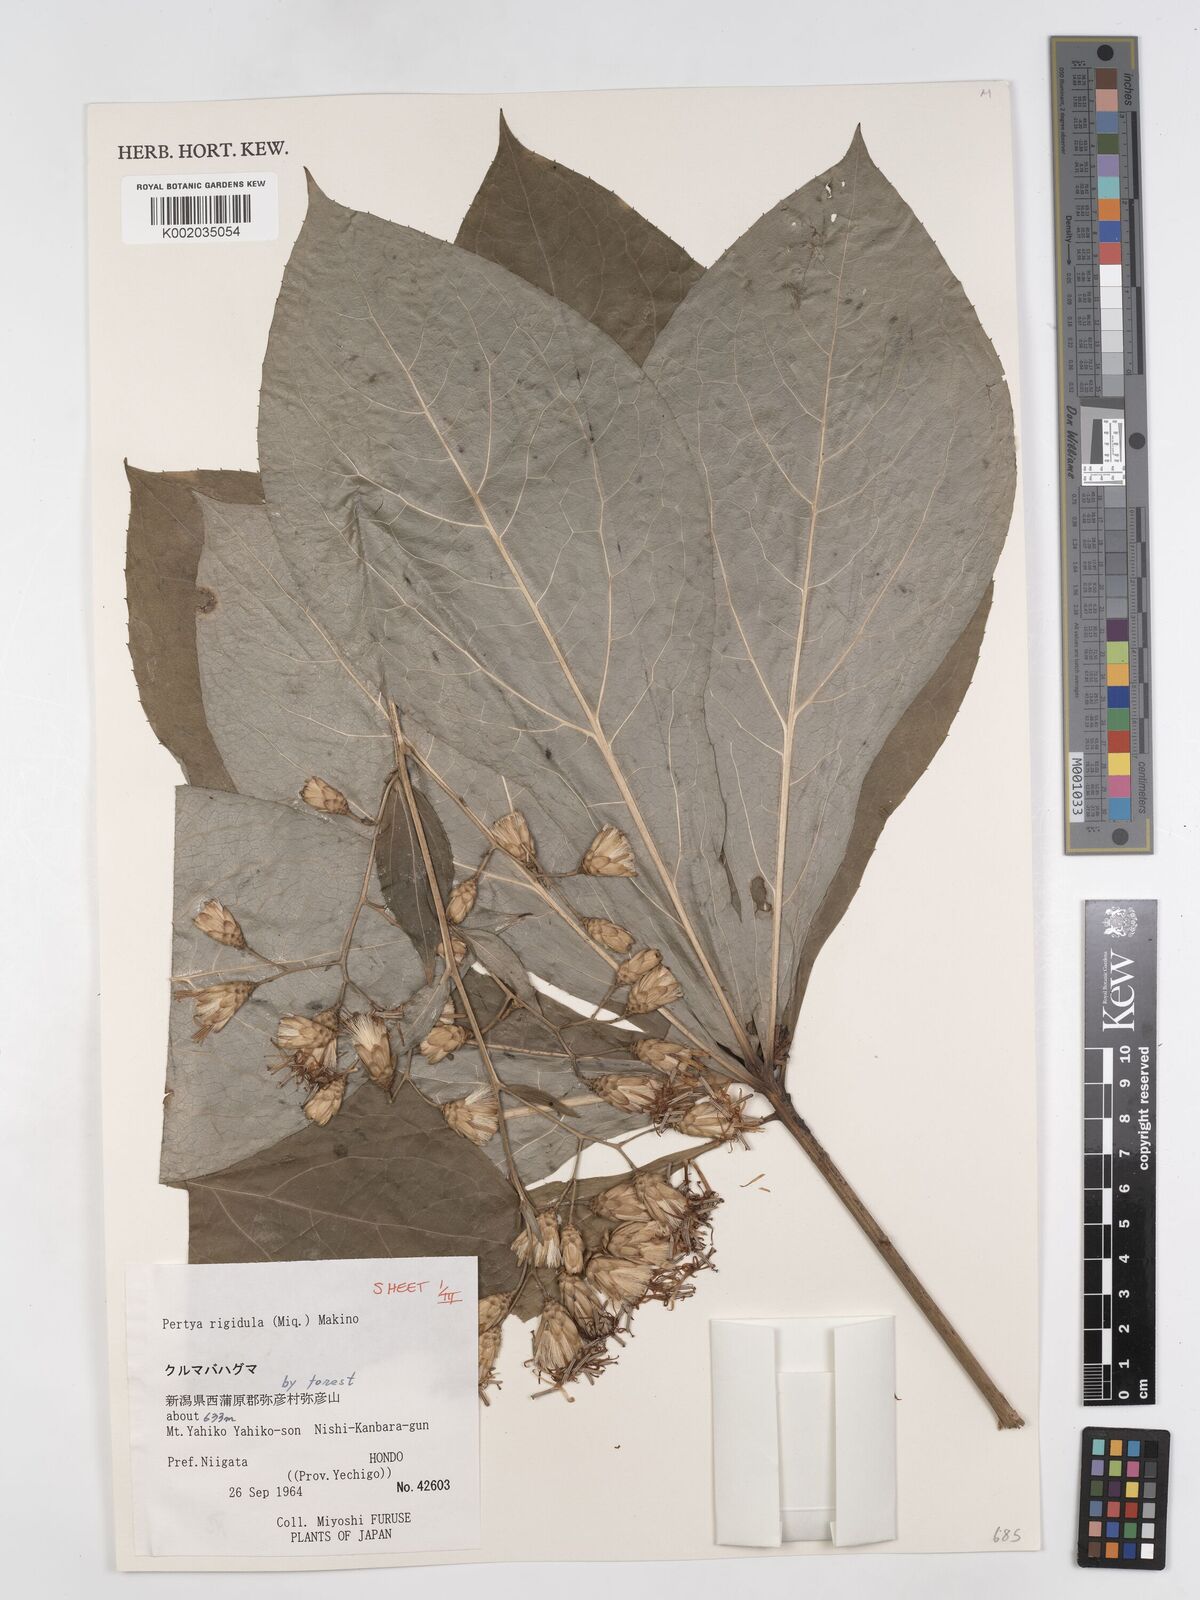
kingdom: Plantae
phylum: Tracheophyta
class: Magnoliopsida
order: Asterales
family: Asteraceae
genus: Pertya
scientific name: Pertya rigidula
